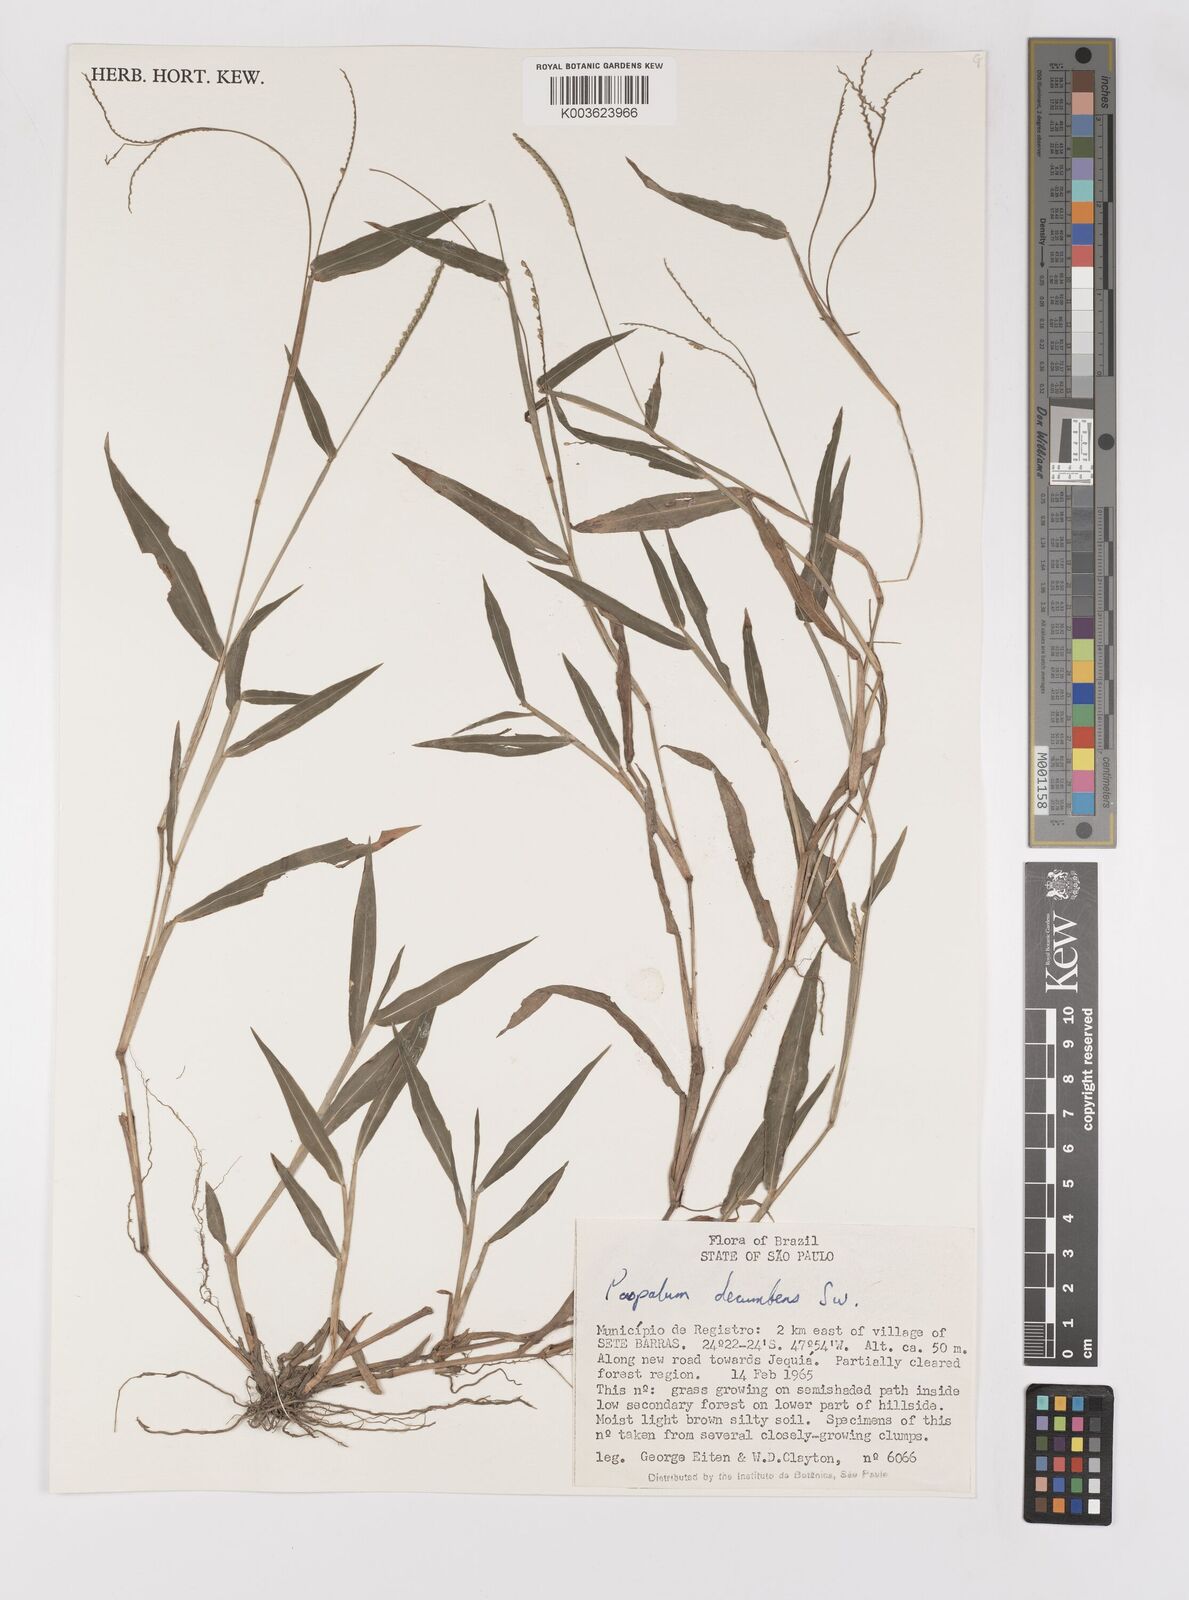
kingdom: Plantae
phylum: Tracheophyta
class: Liliopsida
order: Poales
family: Poaceae
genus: Paspalum
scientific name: Paspalum nutans
